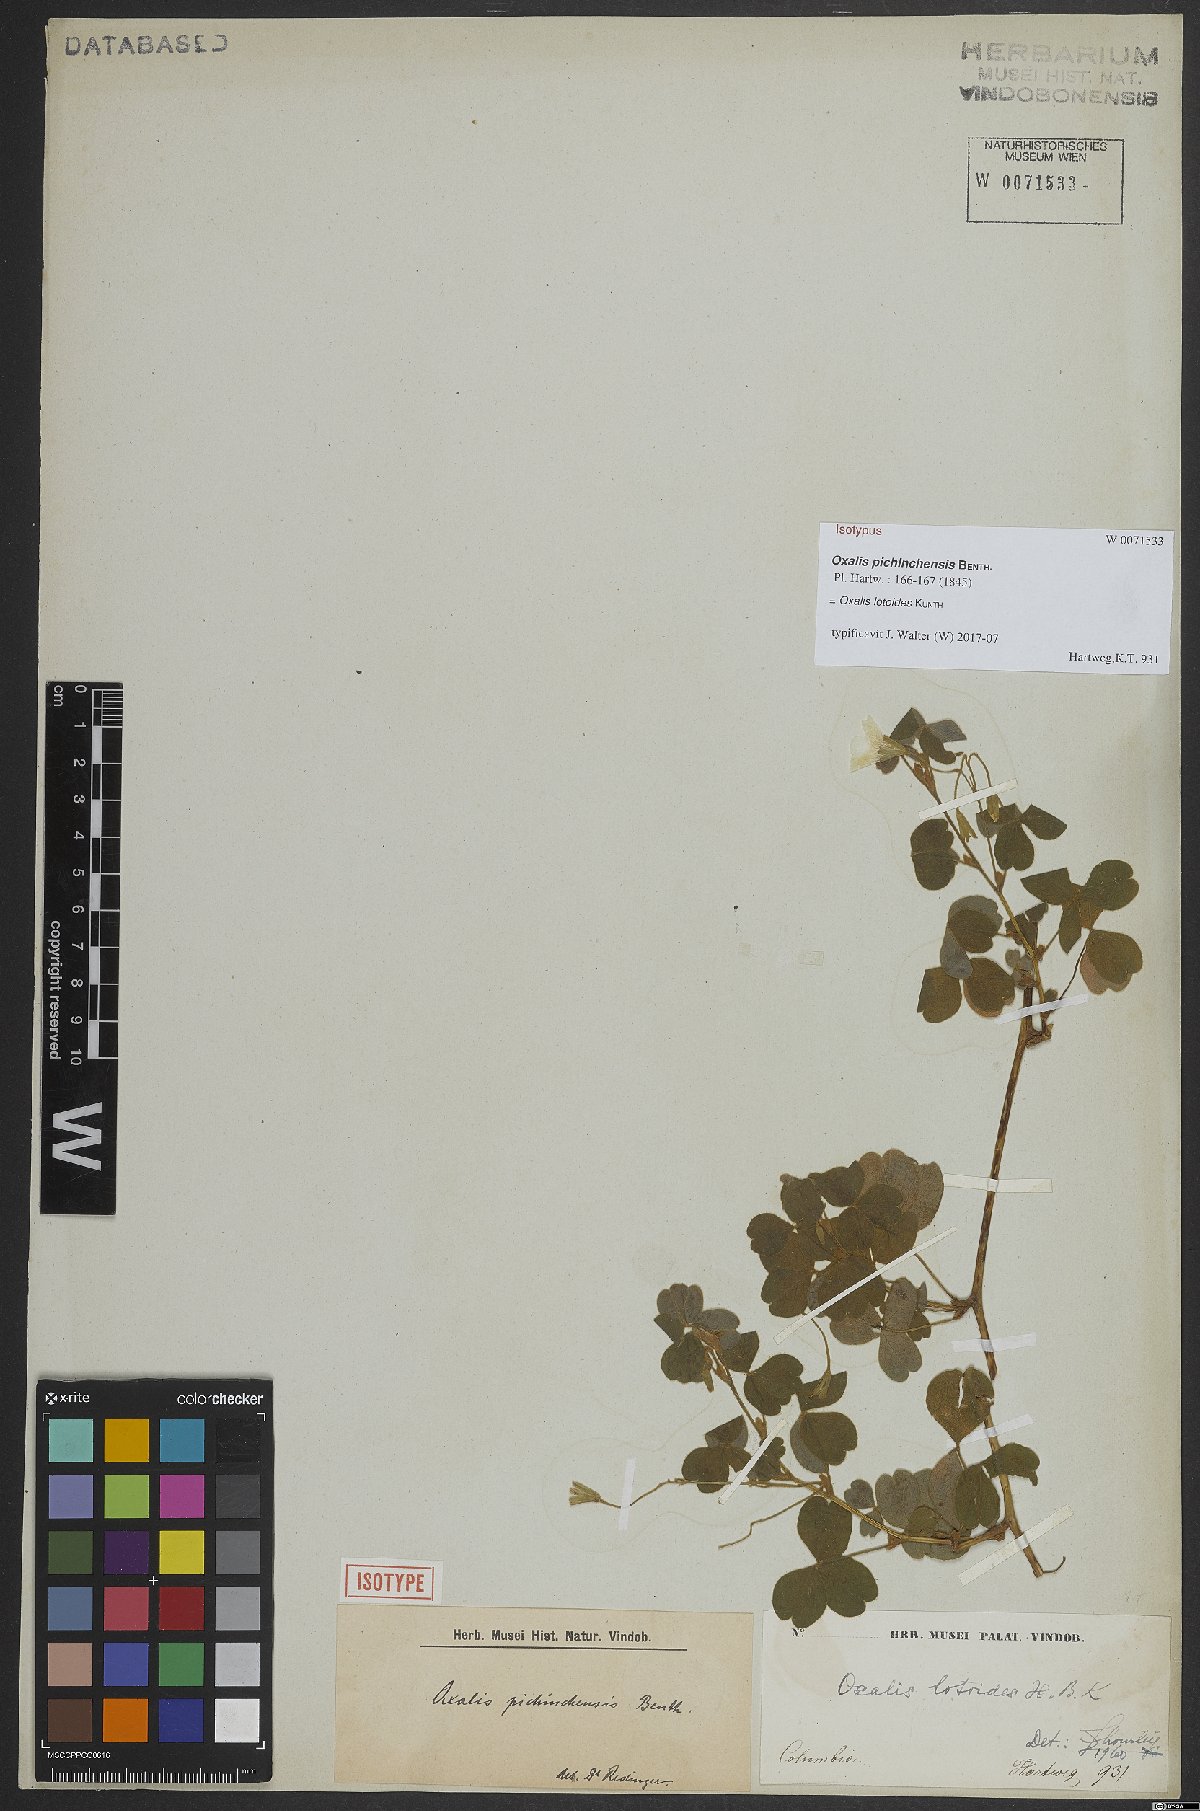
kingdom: Plantae
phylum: Tracheophyta
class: Magnoliopsida
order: Oxalidales
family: Oxalidaceae
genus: Oxalis
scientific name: Oxalis lotoides
